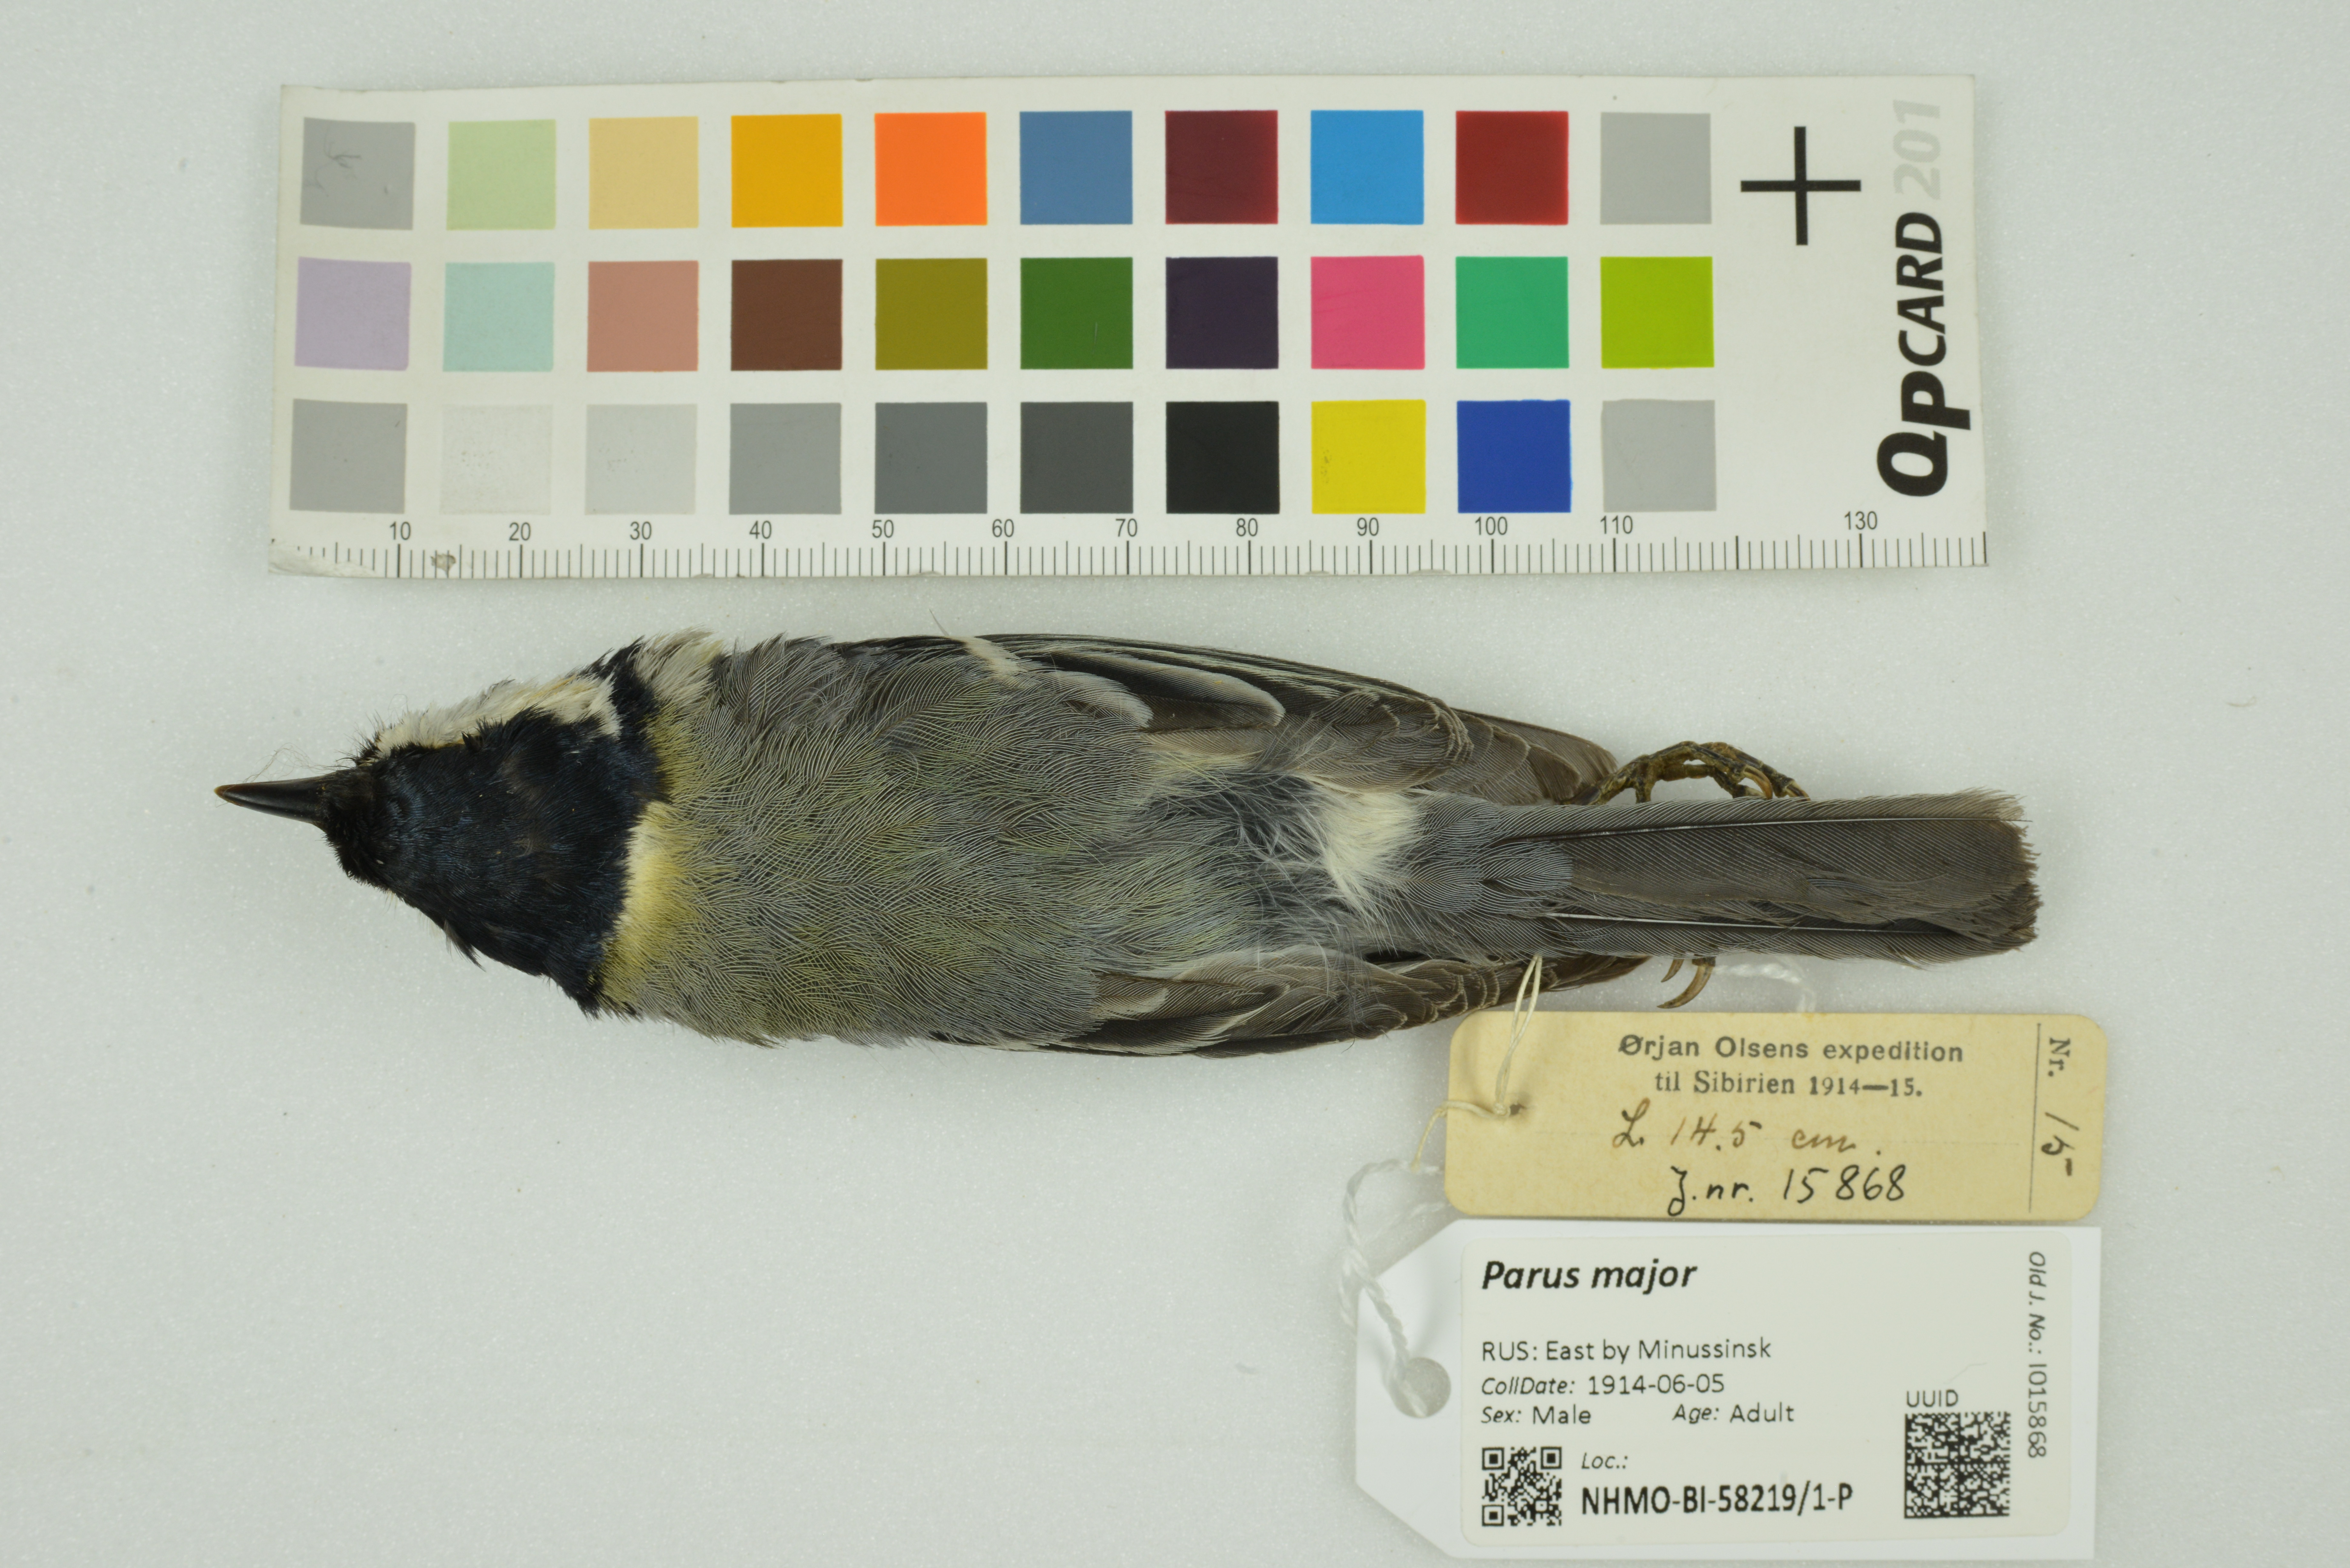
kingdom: Animalia
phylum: Chordata
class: Aves
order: Passeriformes
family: Paridae
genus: Parus
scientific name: Parus major
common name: Great tit
